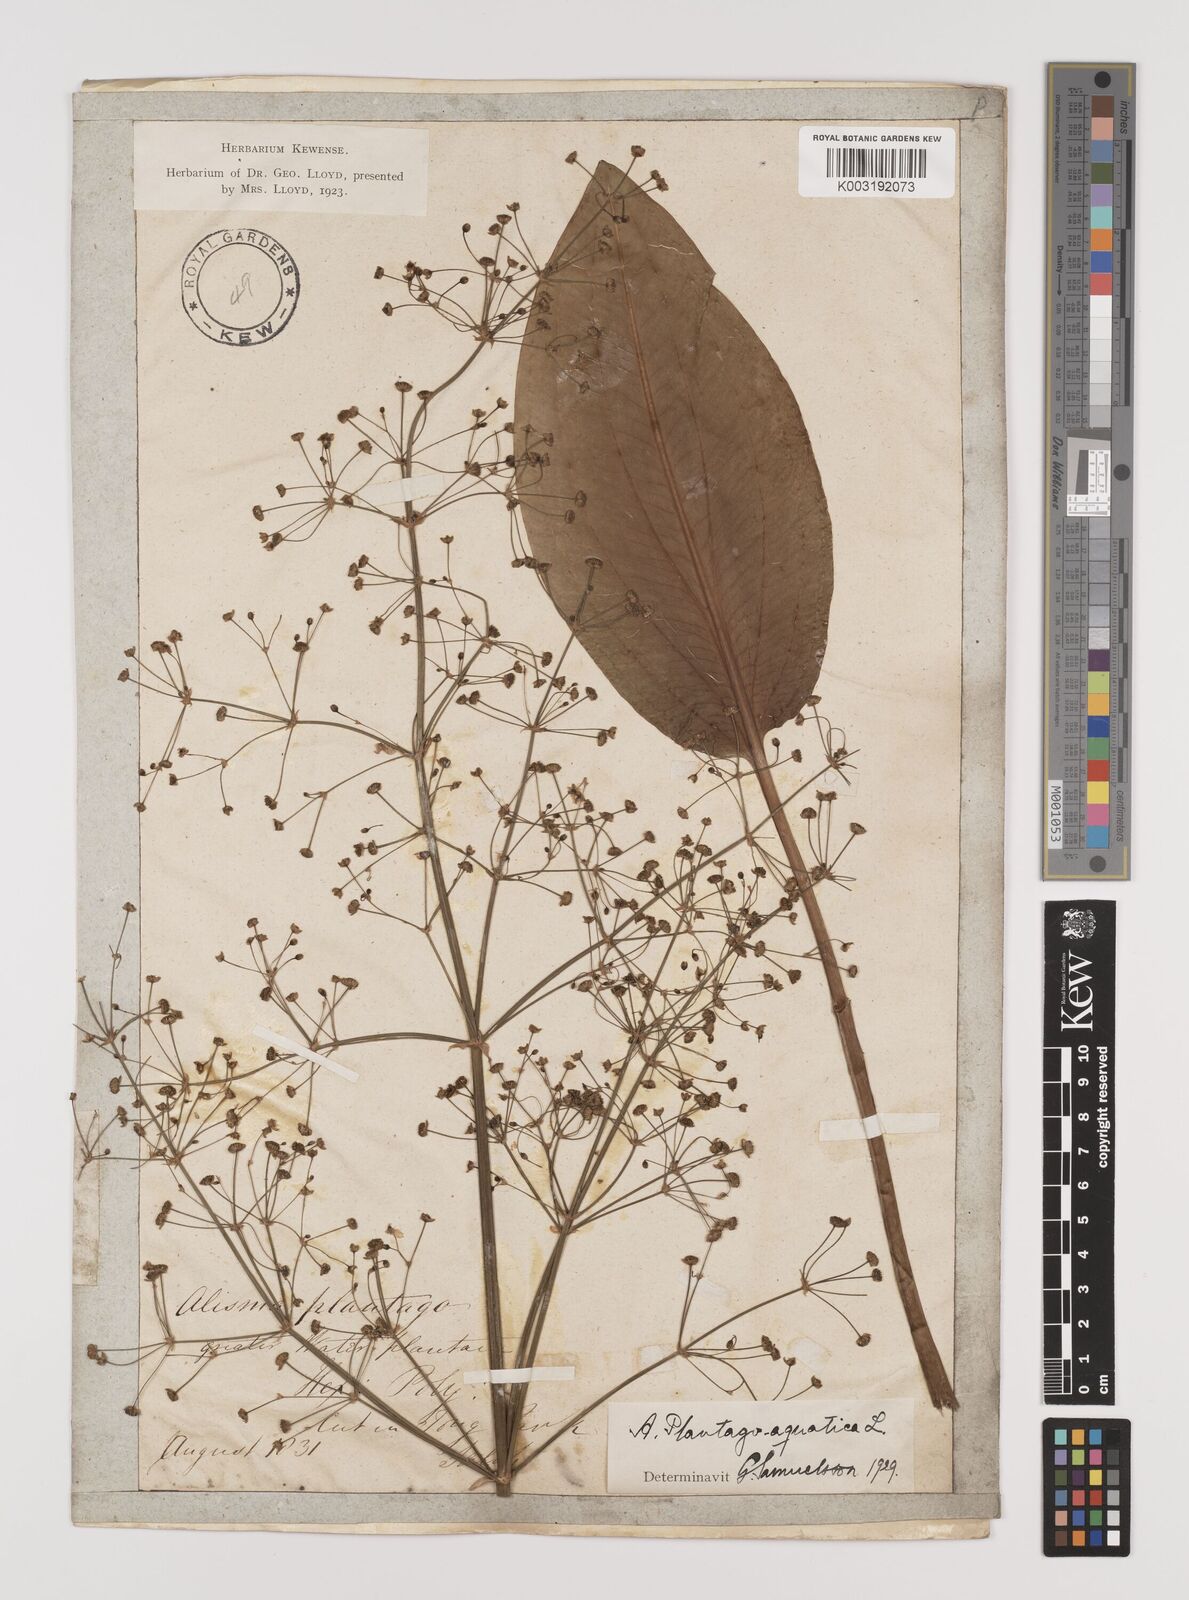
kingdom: Plantae
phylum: Tracheophyta
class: Liliopsida
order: Alismatales
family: Alismataceae
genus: Alisma
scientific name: Alisma plantago-aquatica
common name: Water-plantain
